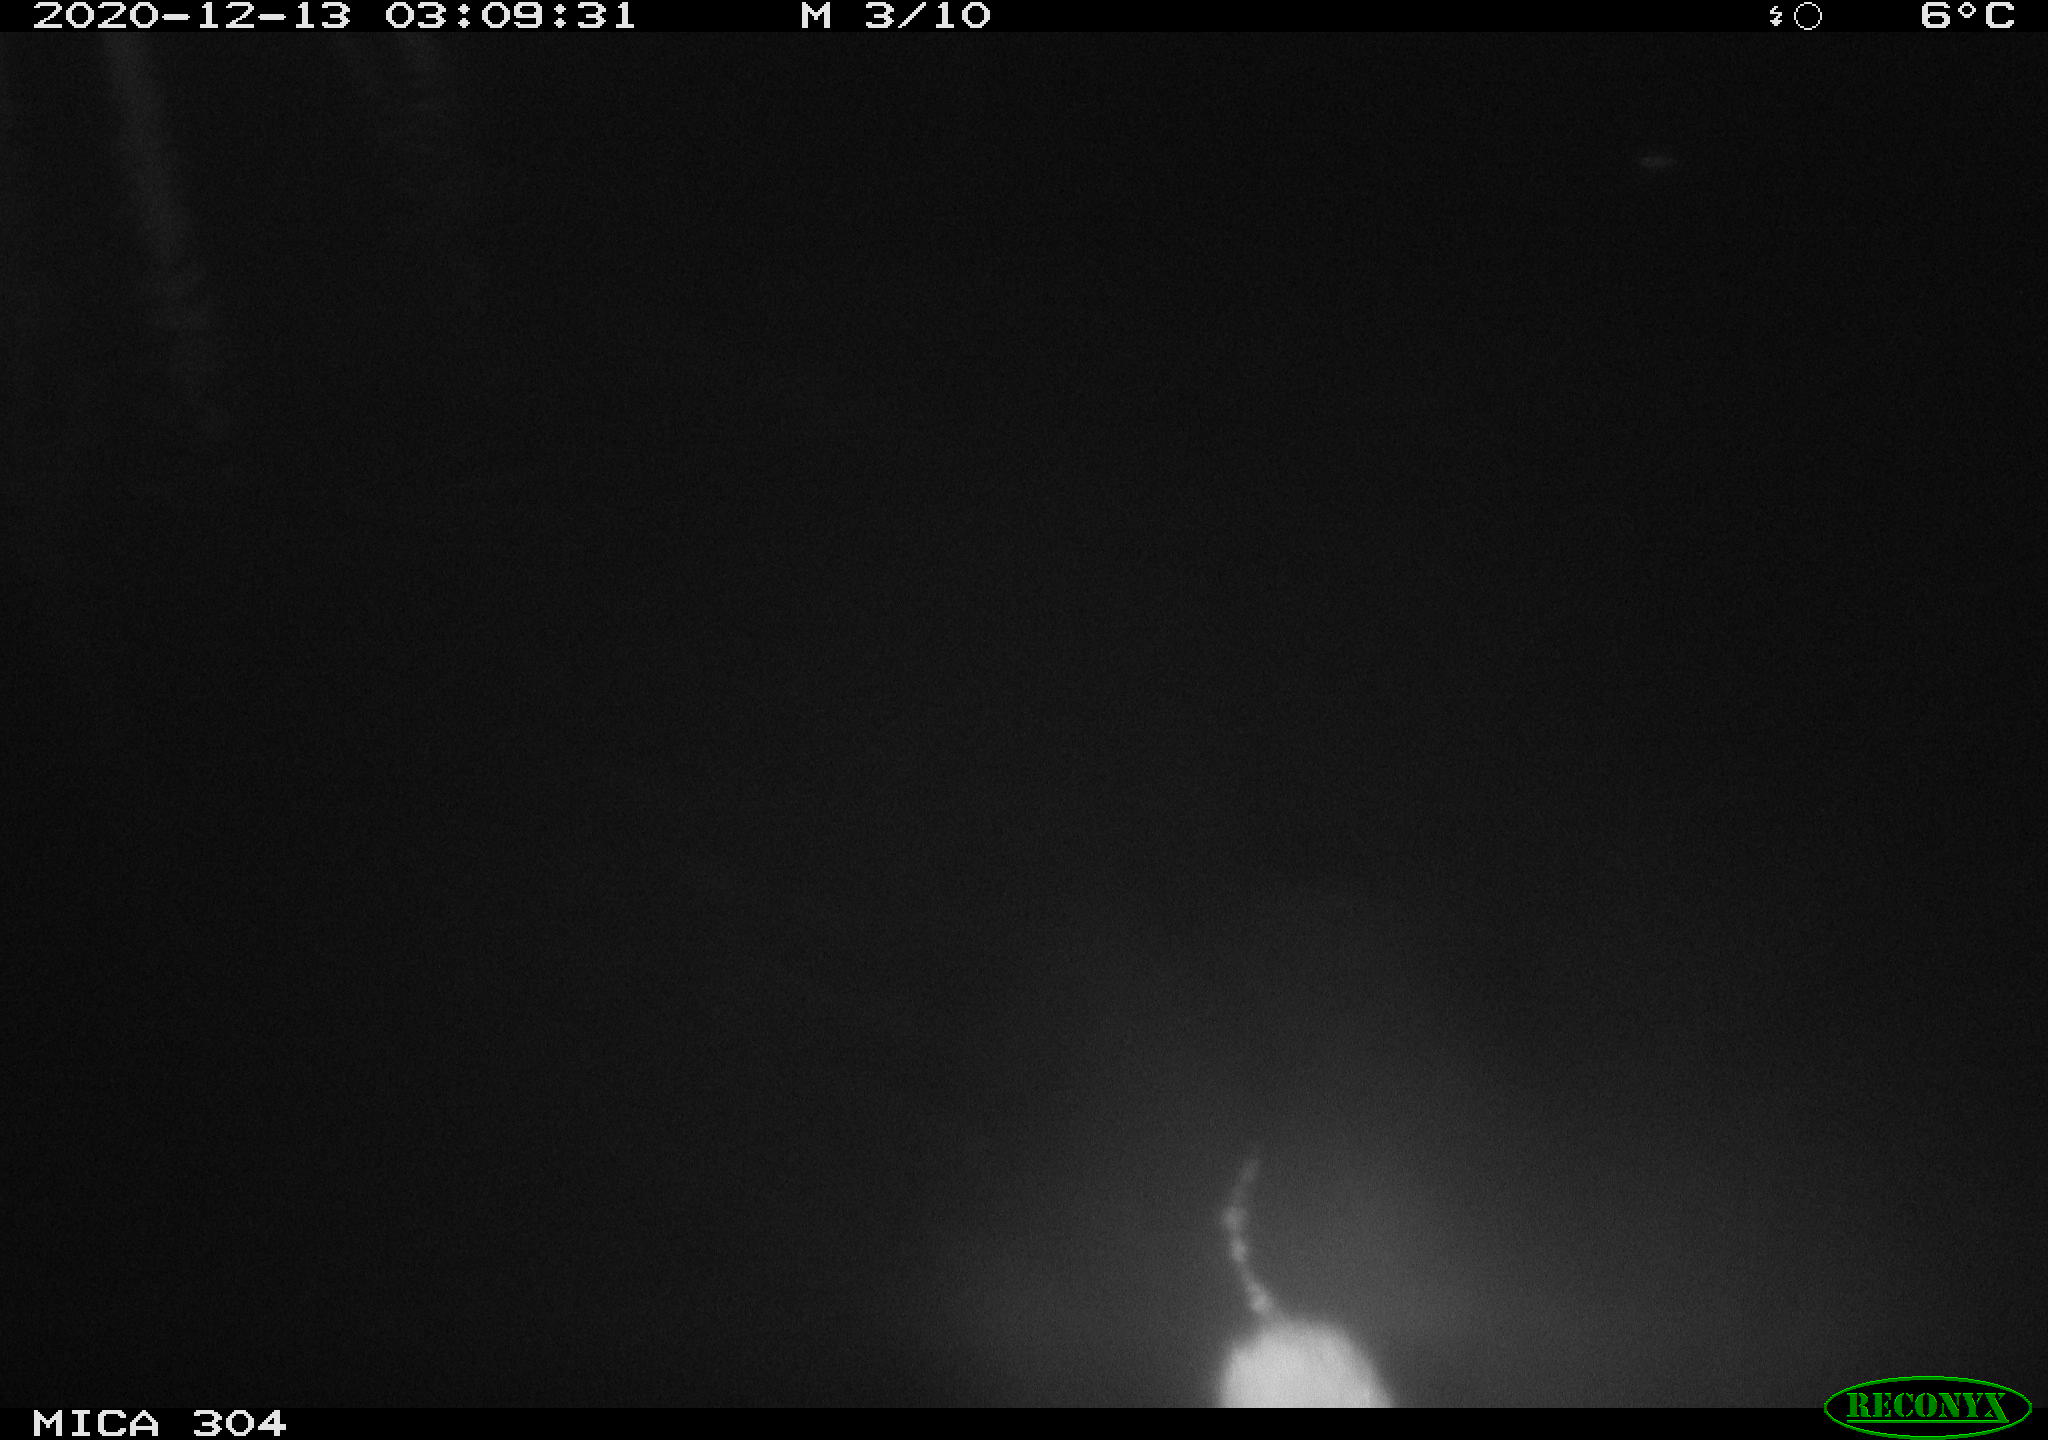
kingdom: Animalia
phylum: Chordata
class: Mammalia
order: Rodentia
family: Cricetidae
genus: Ondatra
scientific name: Ondatra zibethicus
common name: Muskrat
